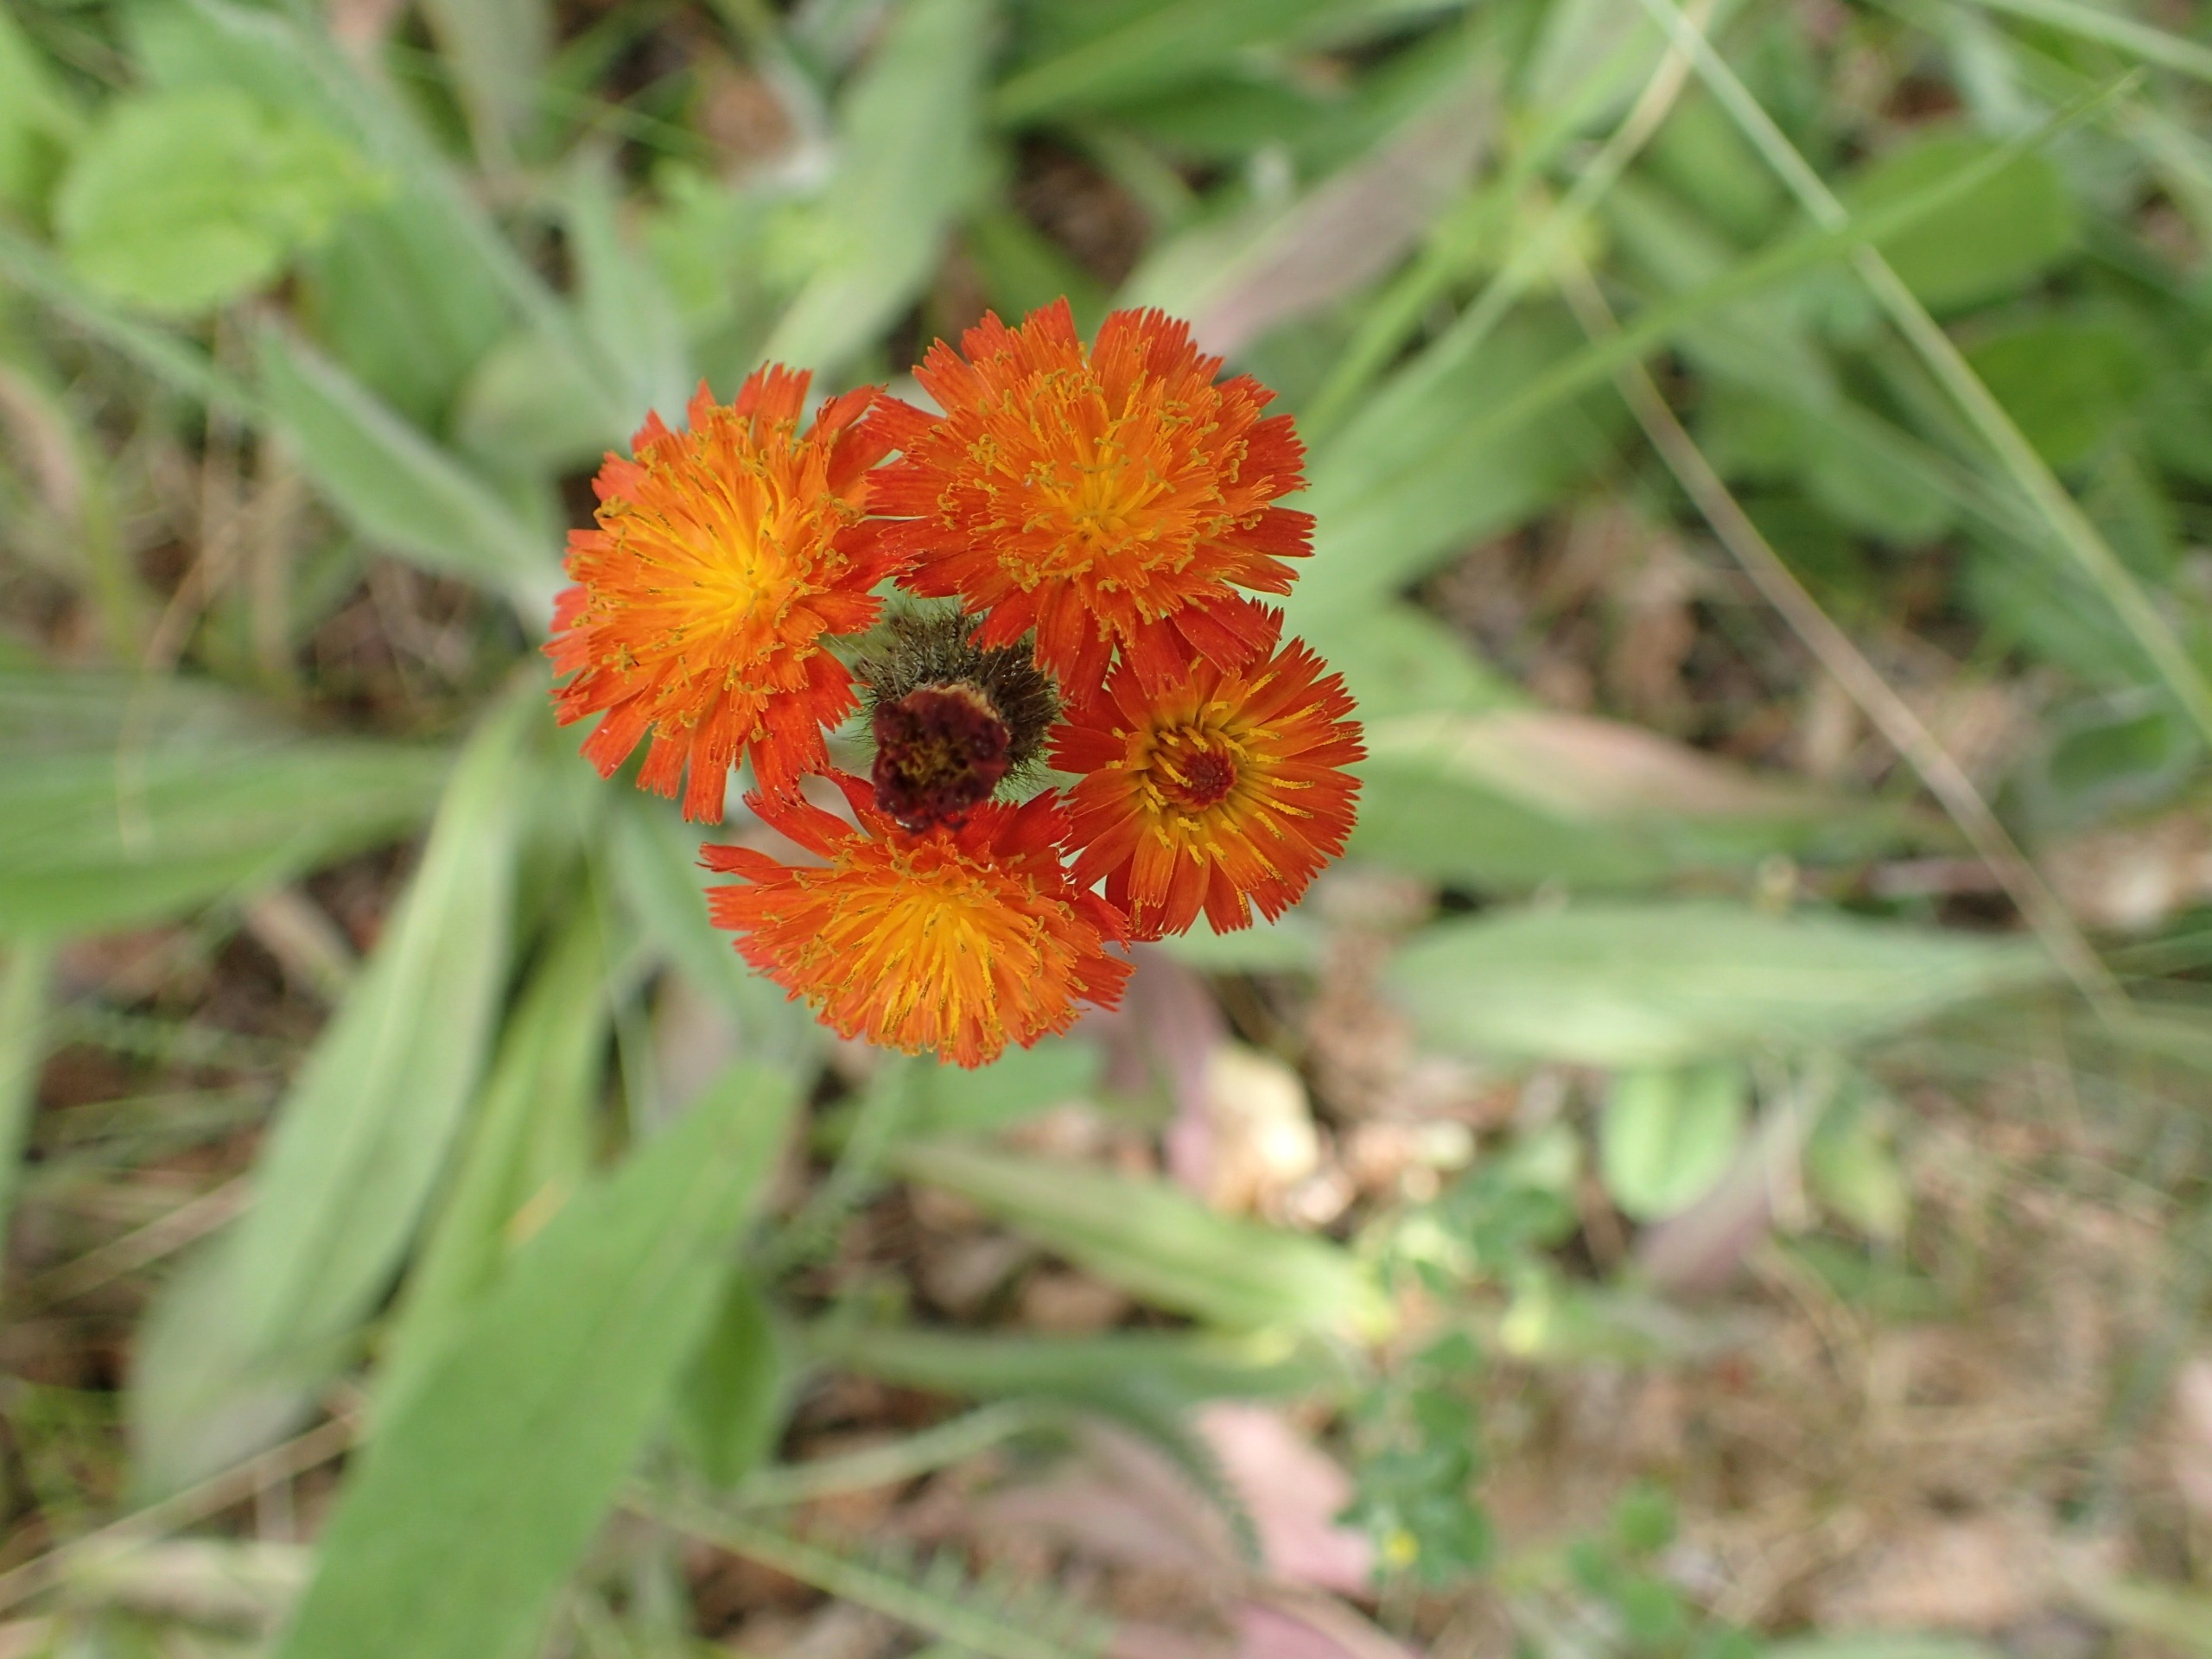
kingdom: Plantae
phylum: Tracheophyta
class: Magnoliopsida
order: Asterales
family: Asteraceae
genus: Pilosella
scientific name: Pilosella aurantiaca
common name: Pomerans-høgeurt
